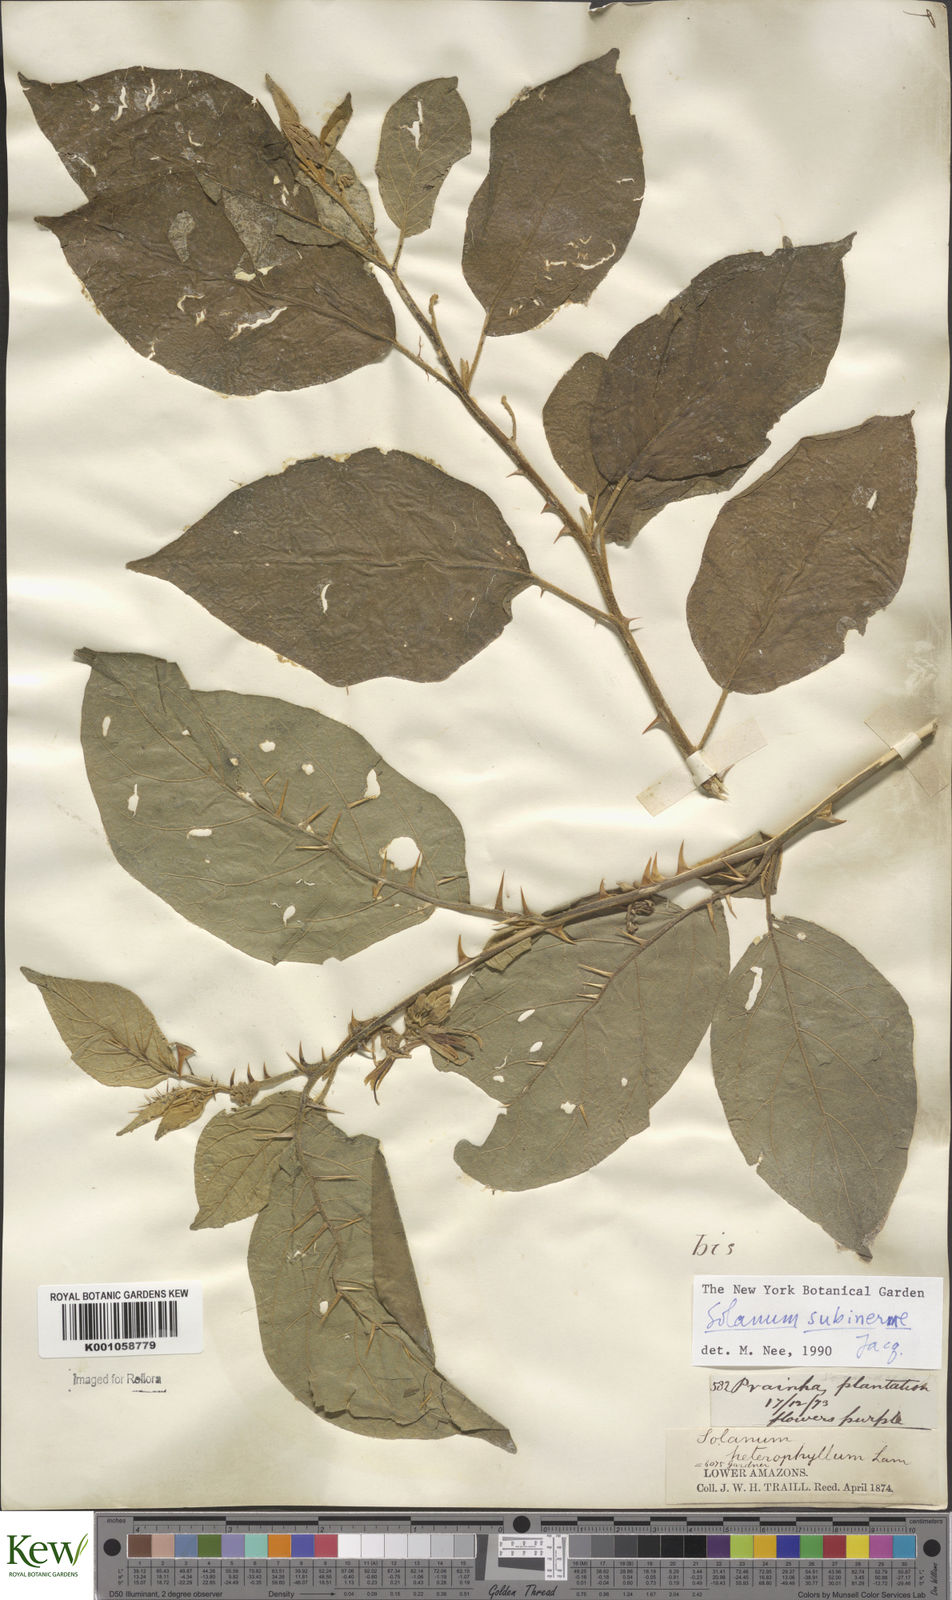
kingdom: Plantae
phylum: Tracheophyta
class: Magnoliopsida
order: Solanales
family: Solanaceae
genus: Solanum
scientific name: Solanum subinerme
